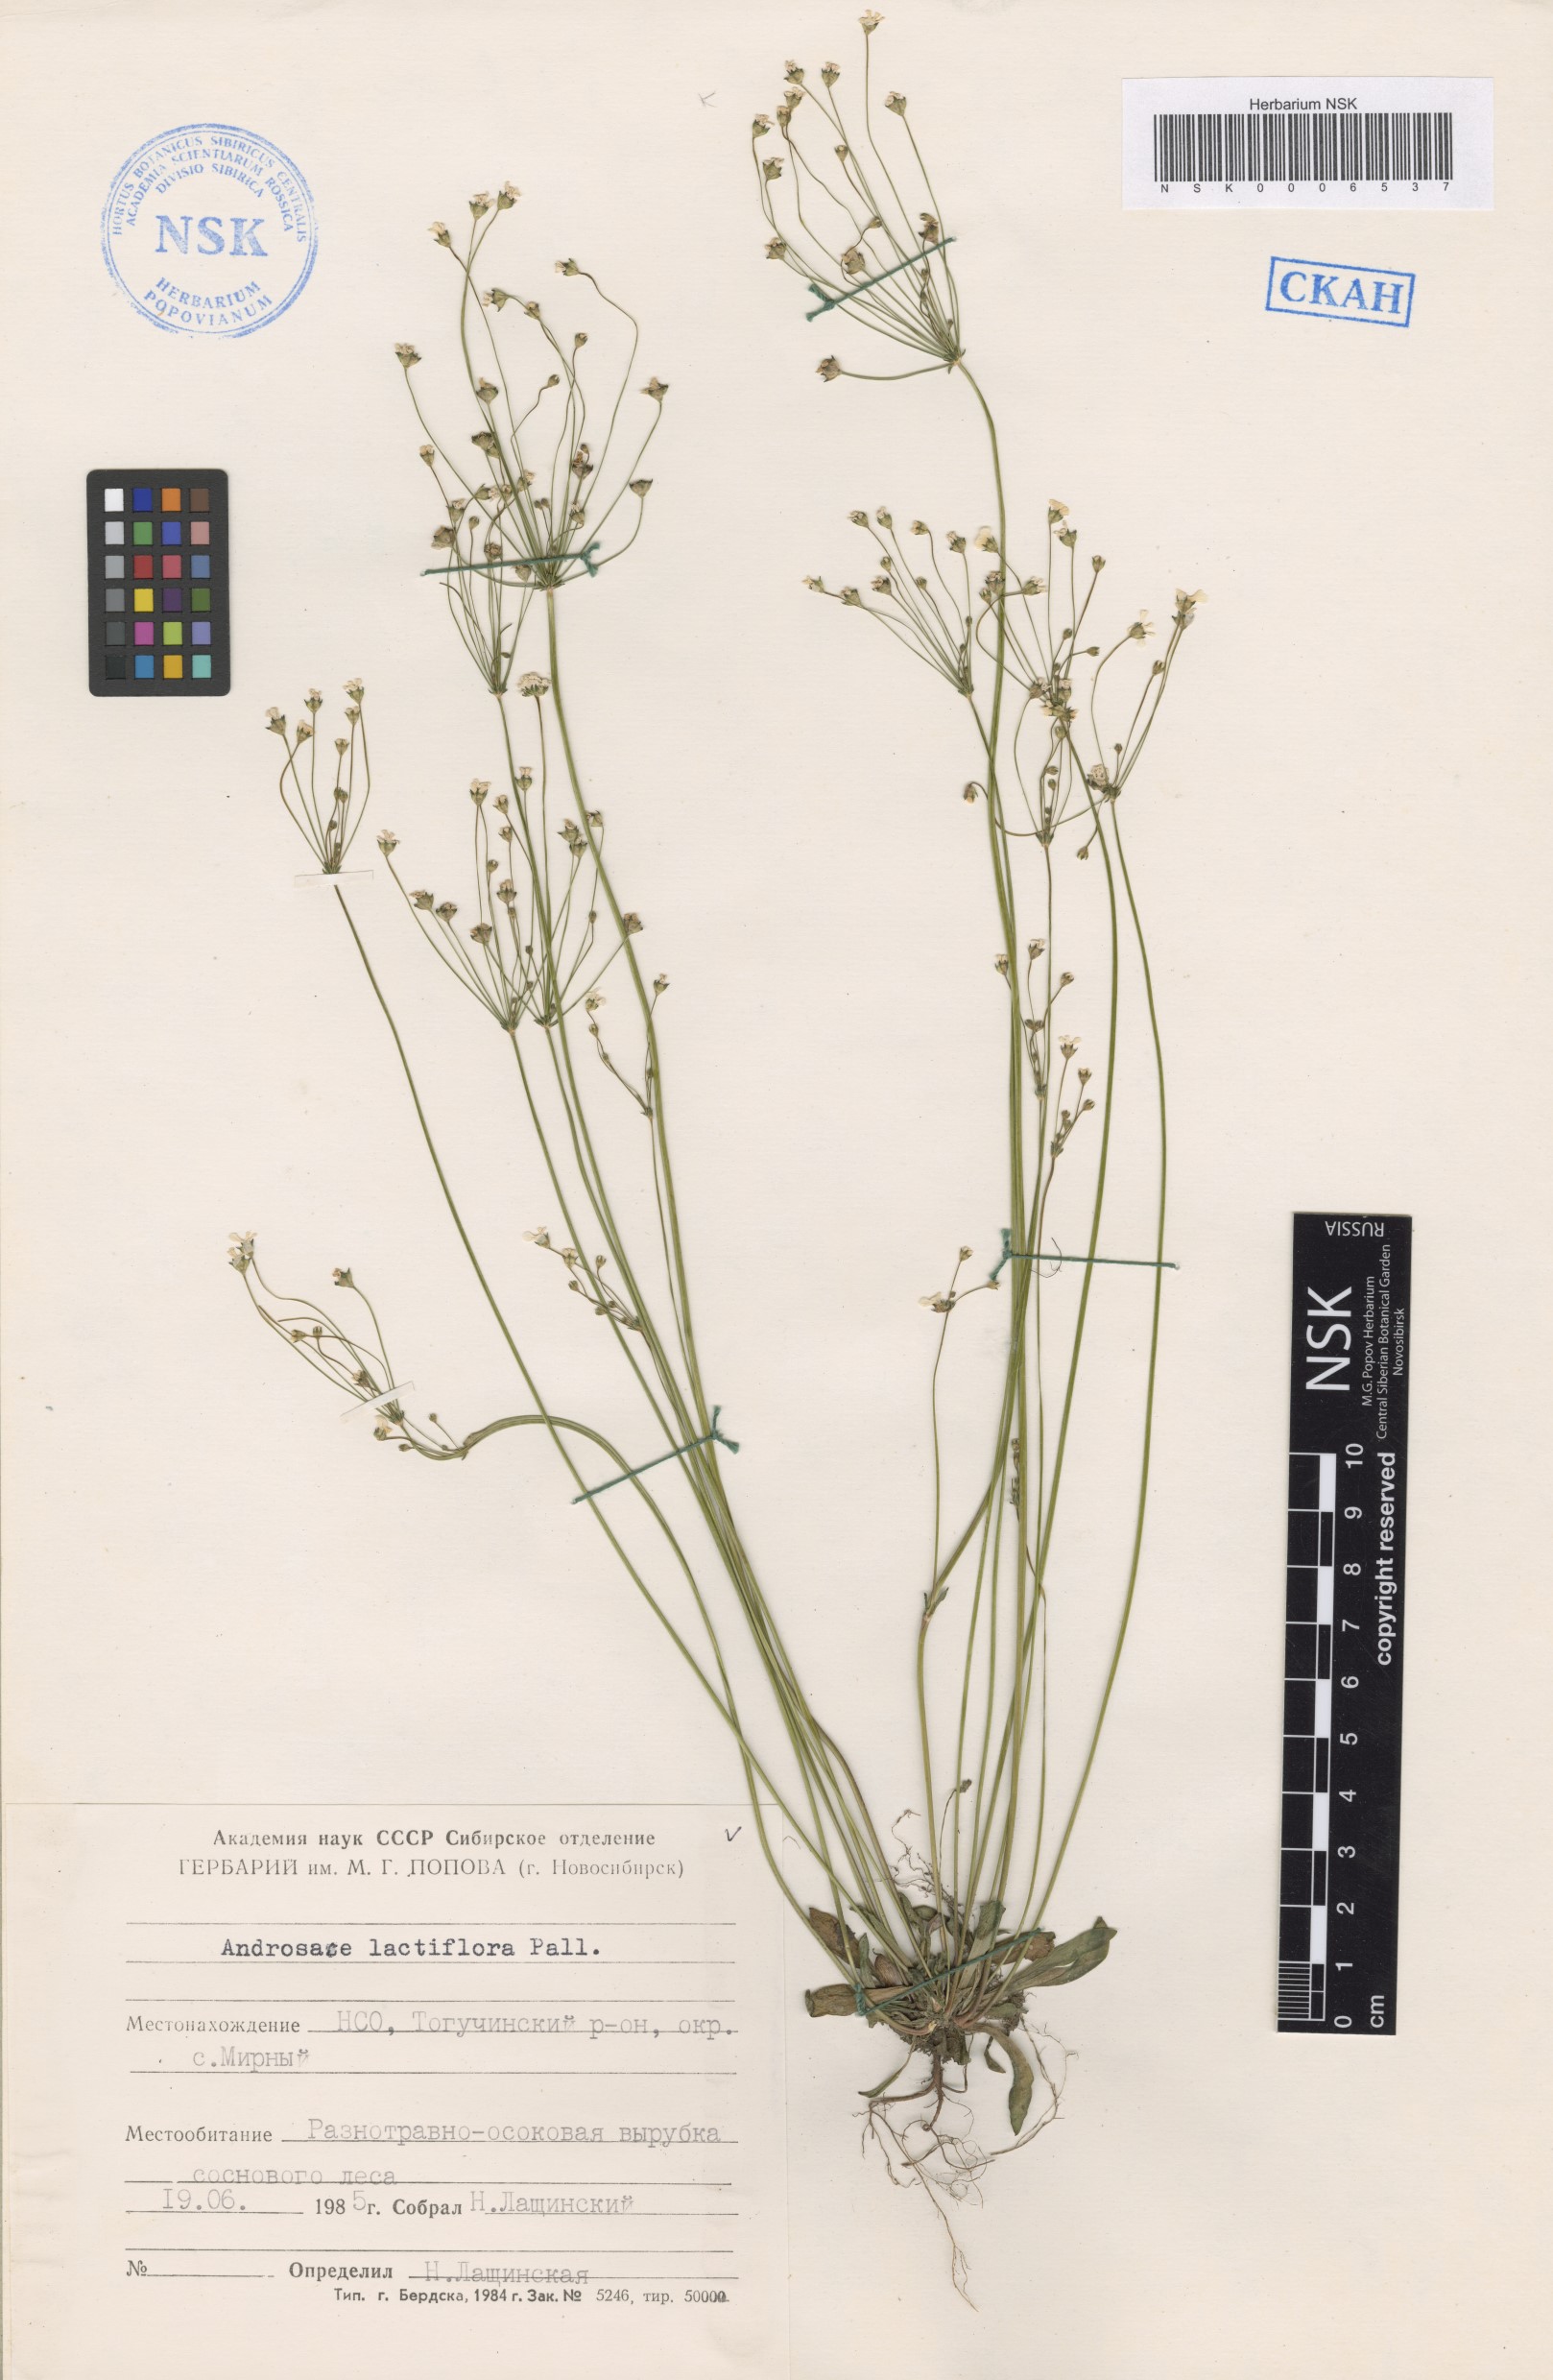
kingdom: Plantae
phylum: Tracheophyta
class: Magnoliopsida
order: Ericales
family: Primulaceae
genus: Androsace
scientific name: Androsace lactiflora
